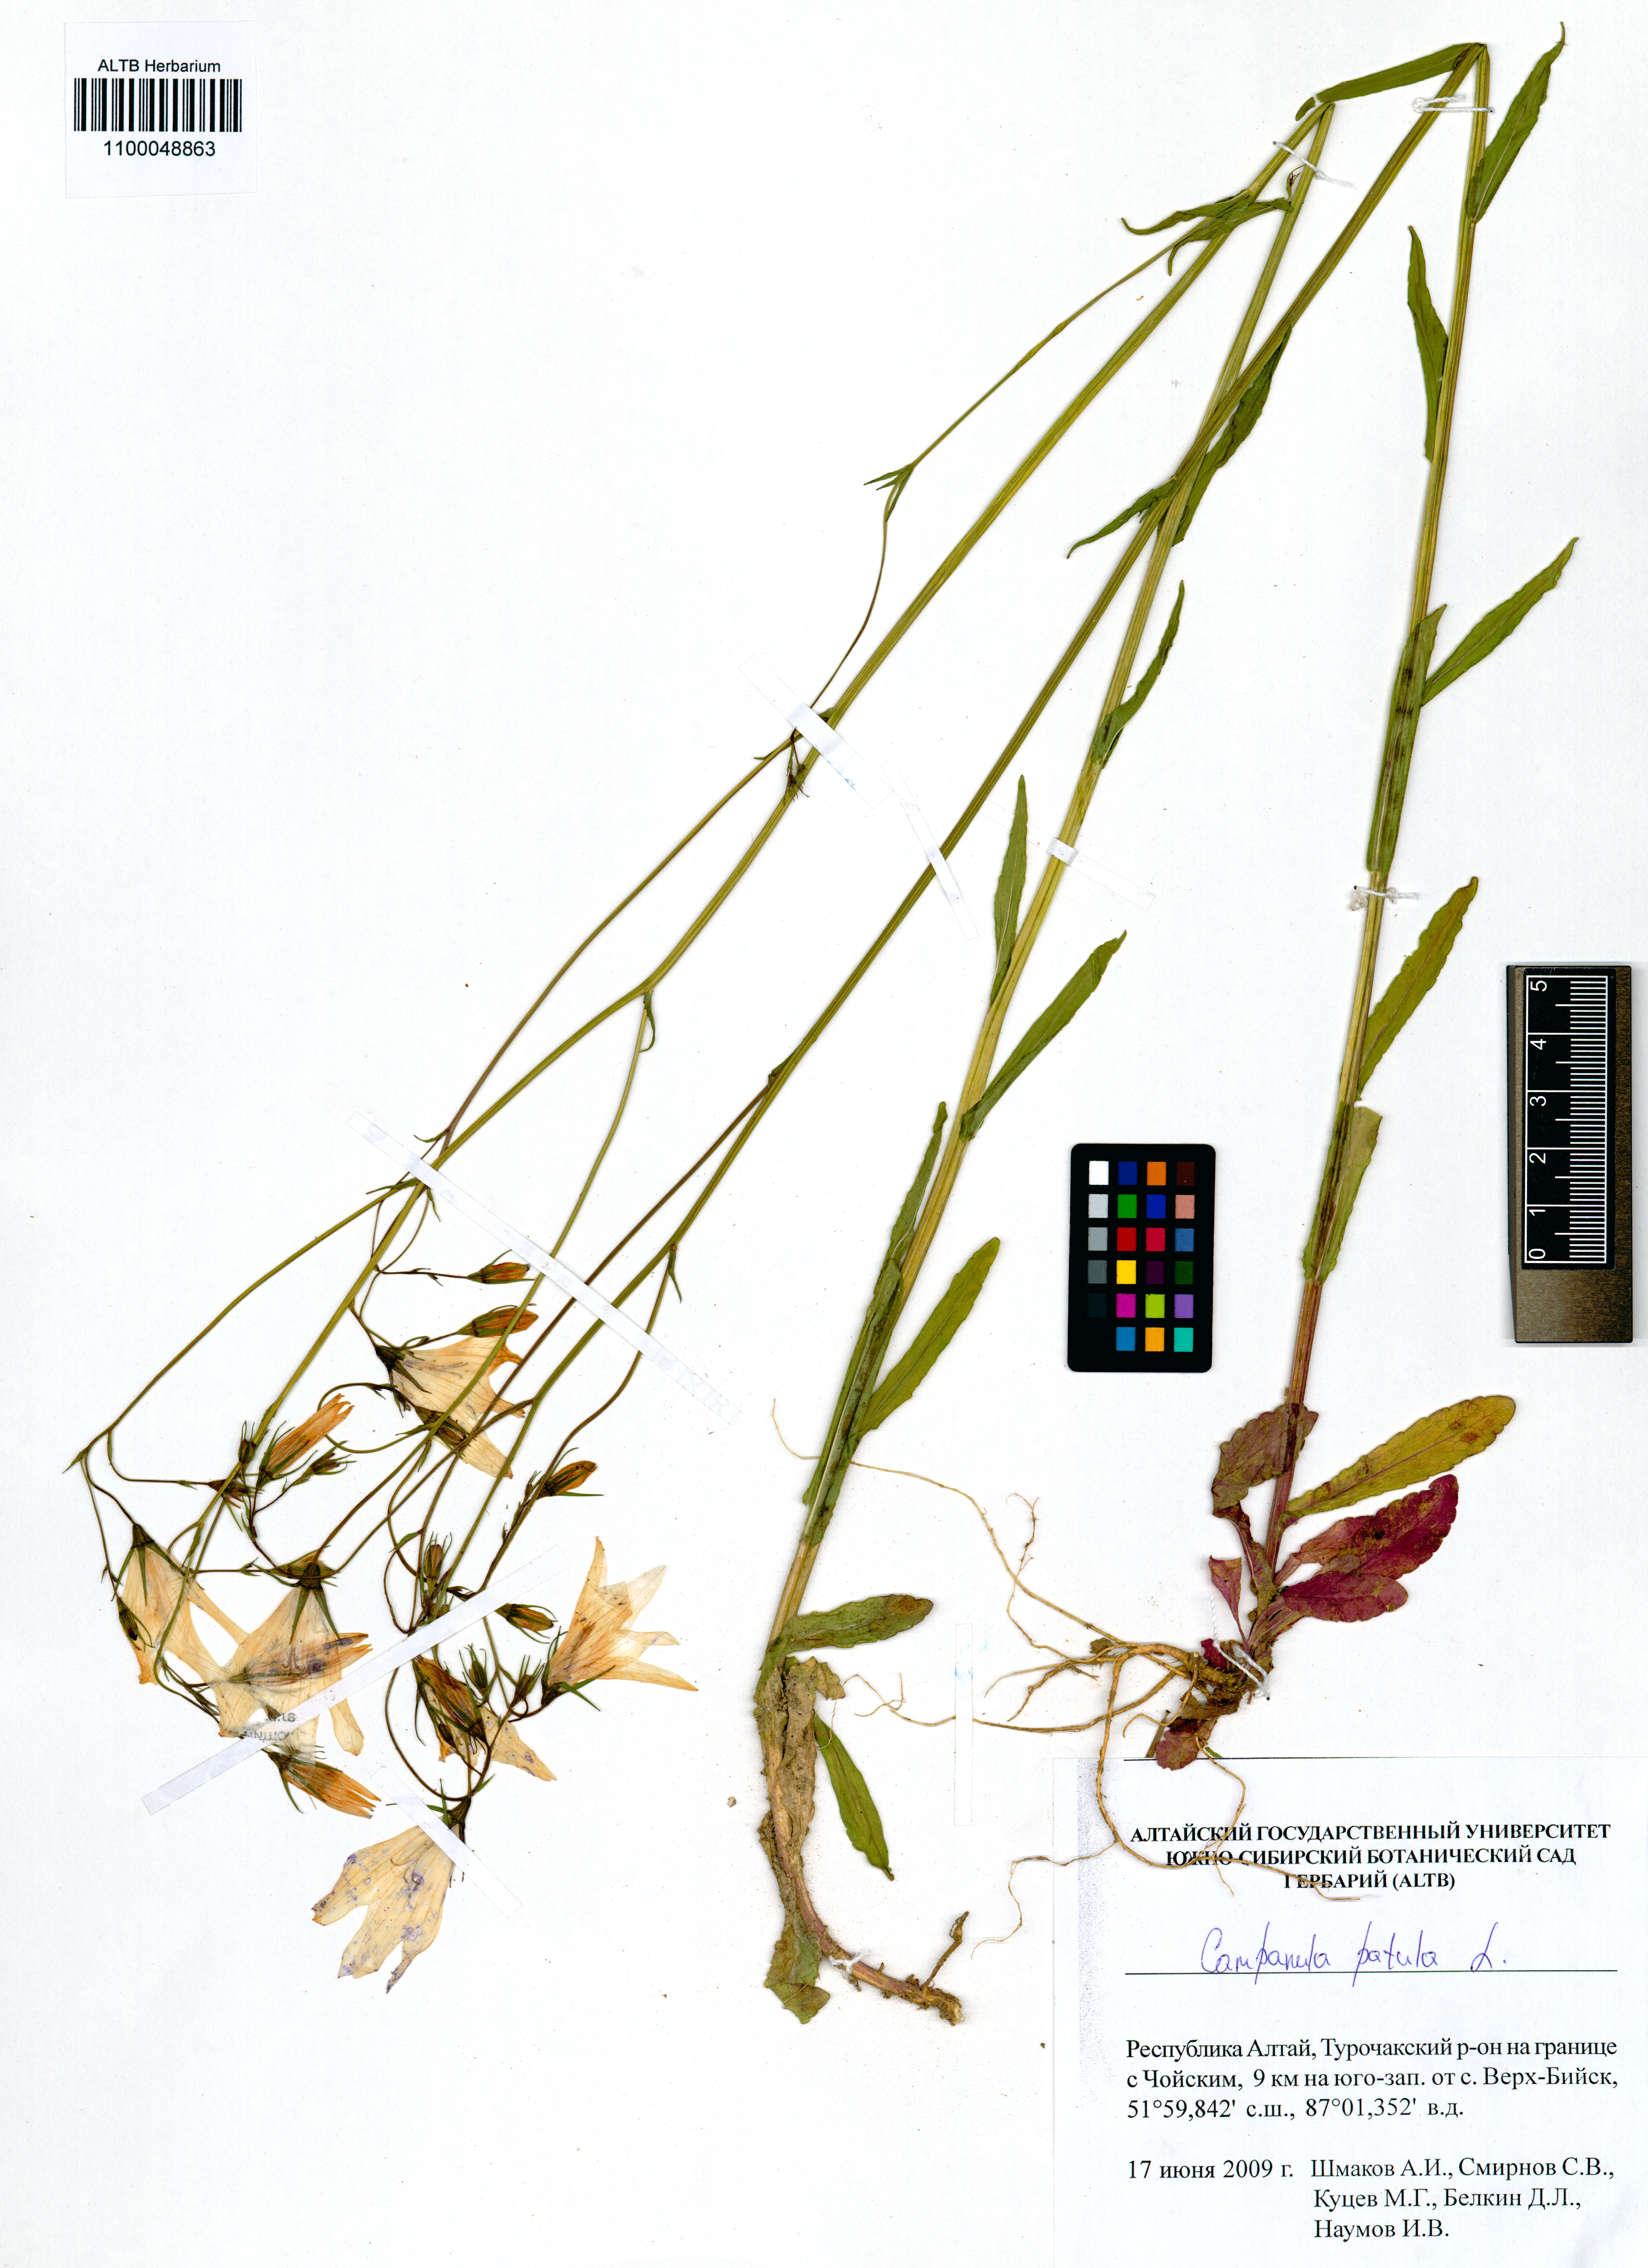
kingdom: Plantae
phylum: Tracheophyta
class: Magnoliopsida
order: Asterales
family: Campanulaceae
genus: Campanula
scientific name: Campanula patula
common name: Spreading bellflower
